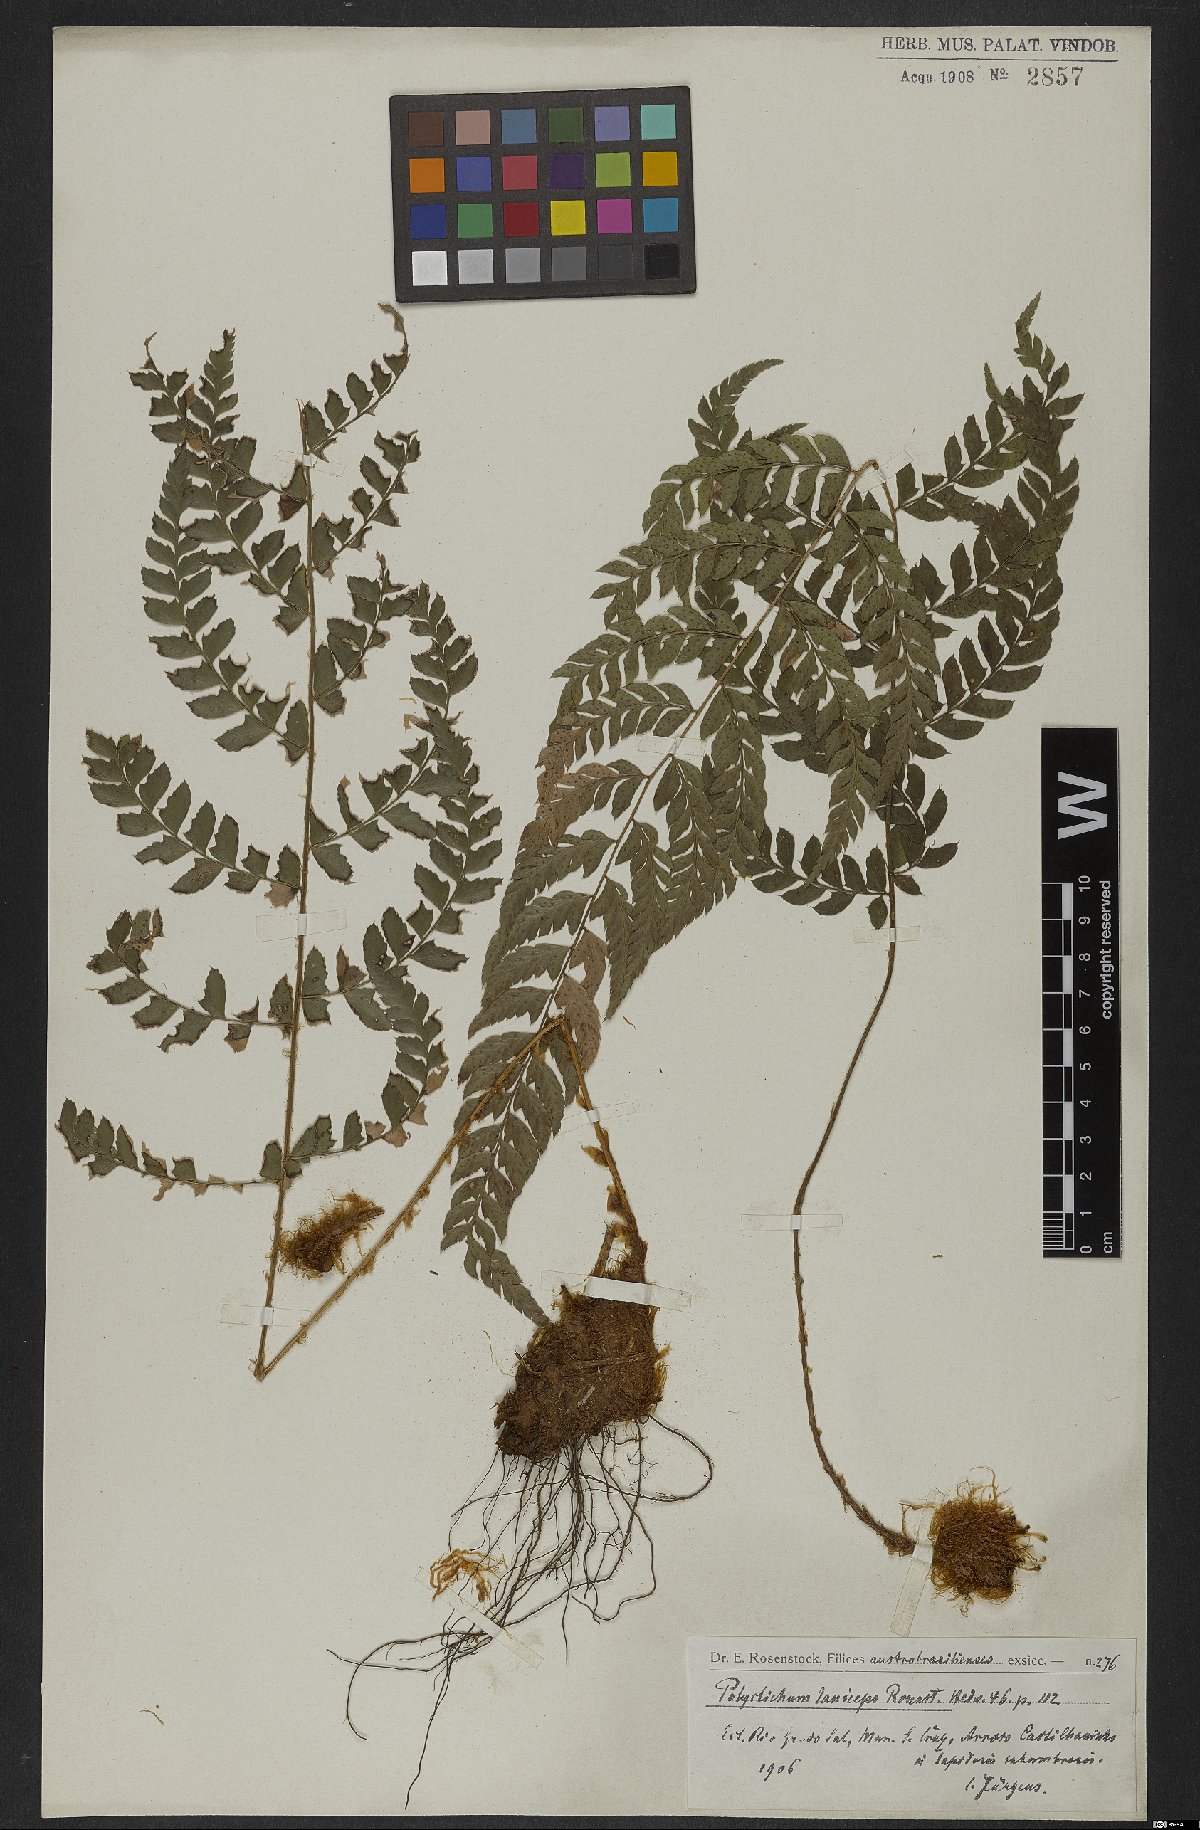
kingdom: Plantae
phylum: Tracheophyta
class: Polypodiopsida
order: Polypodiales
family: Dryopteridaceae
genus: Polystichum
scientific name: Polystichum laniceps
